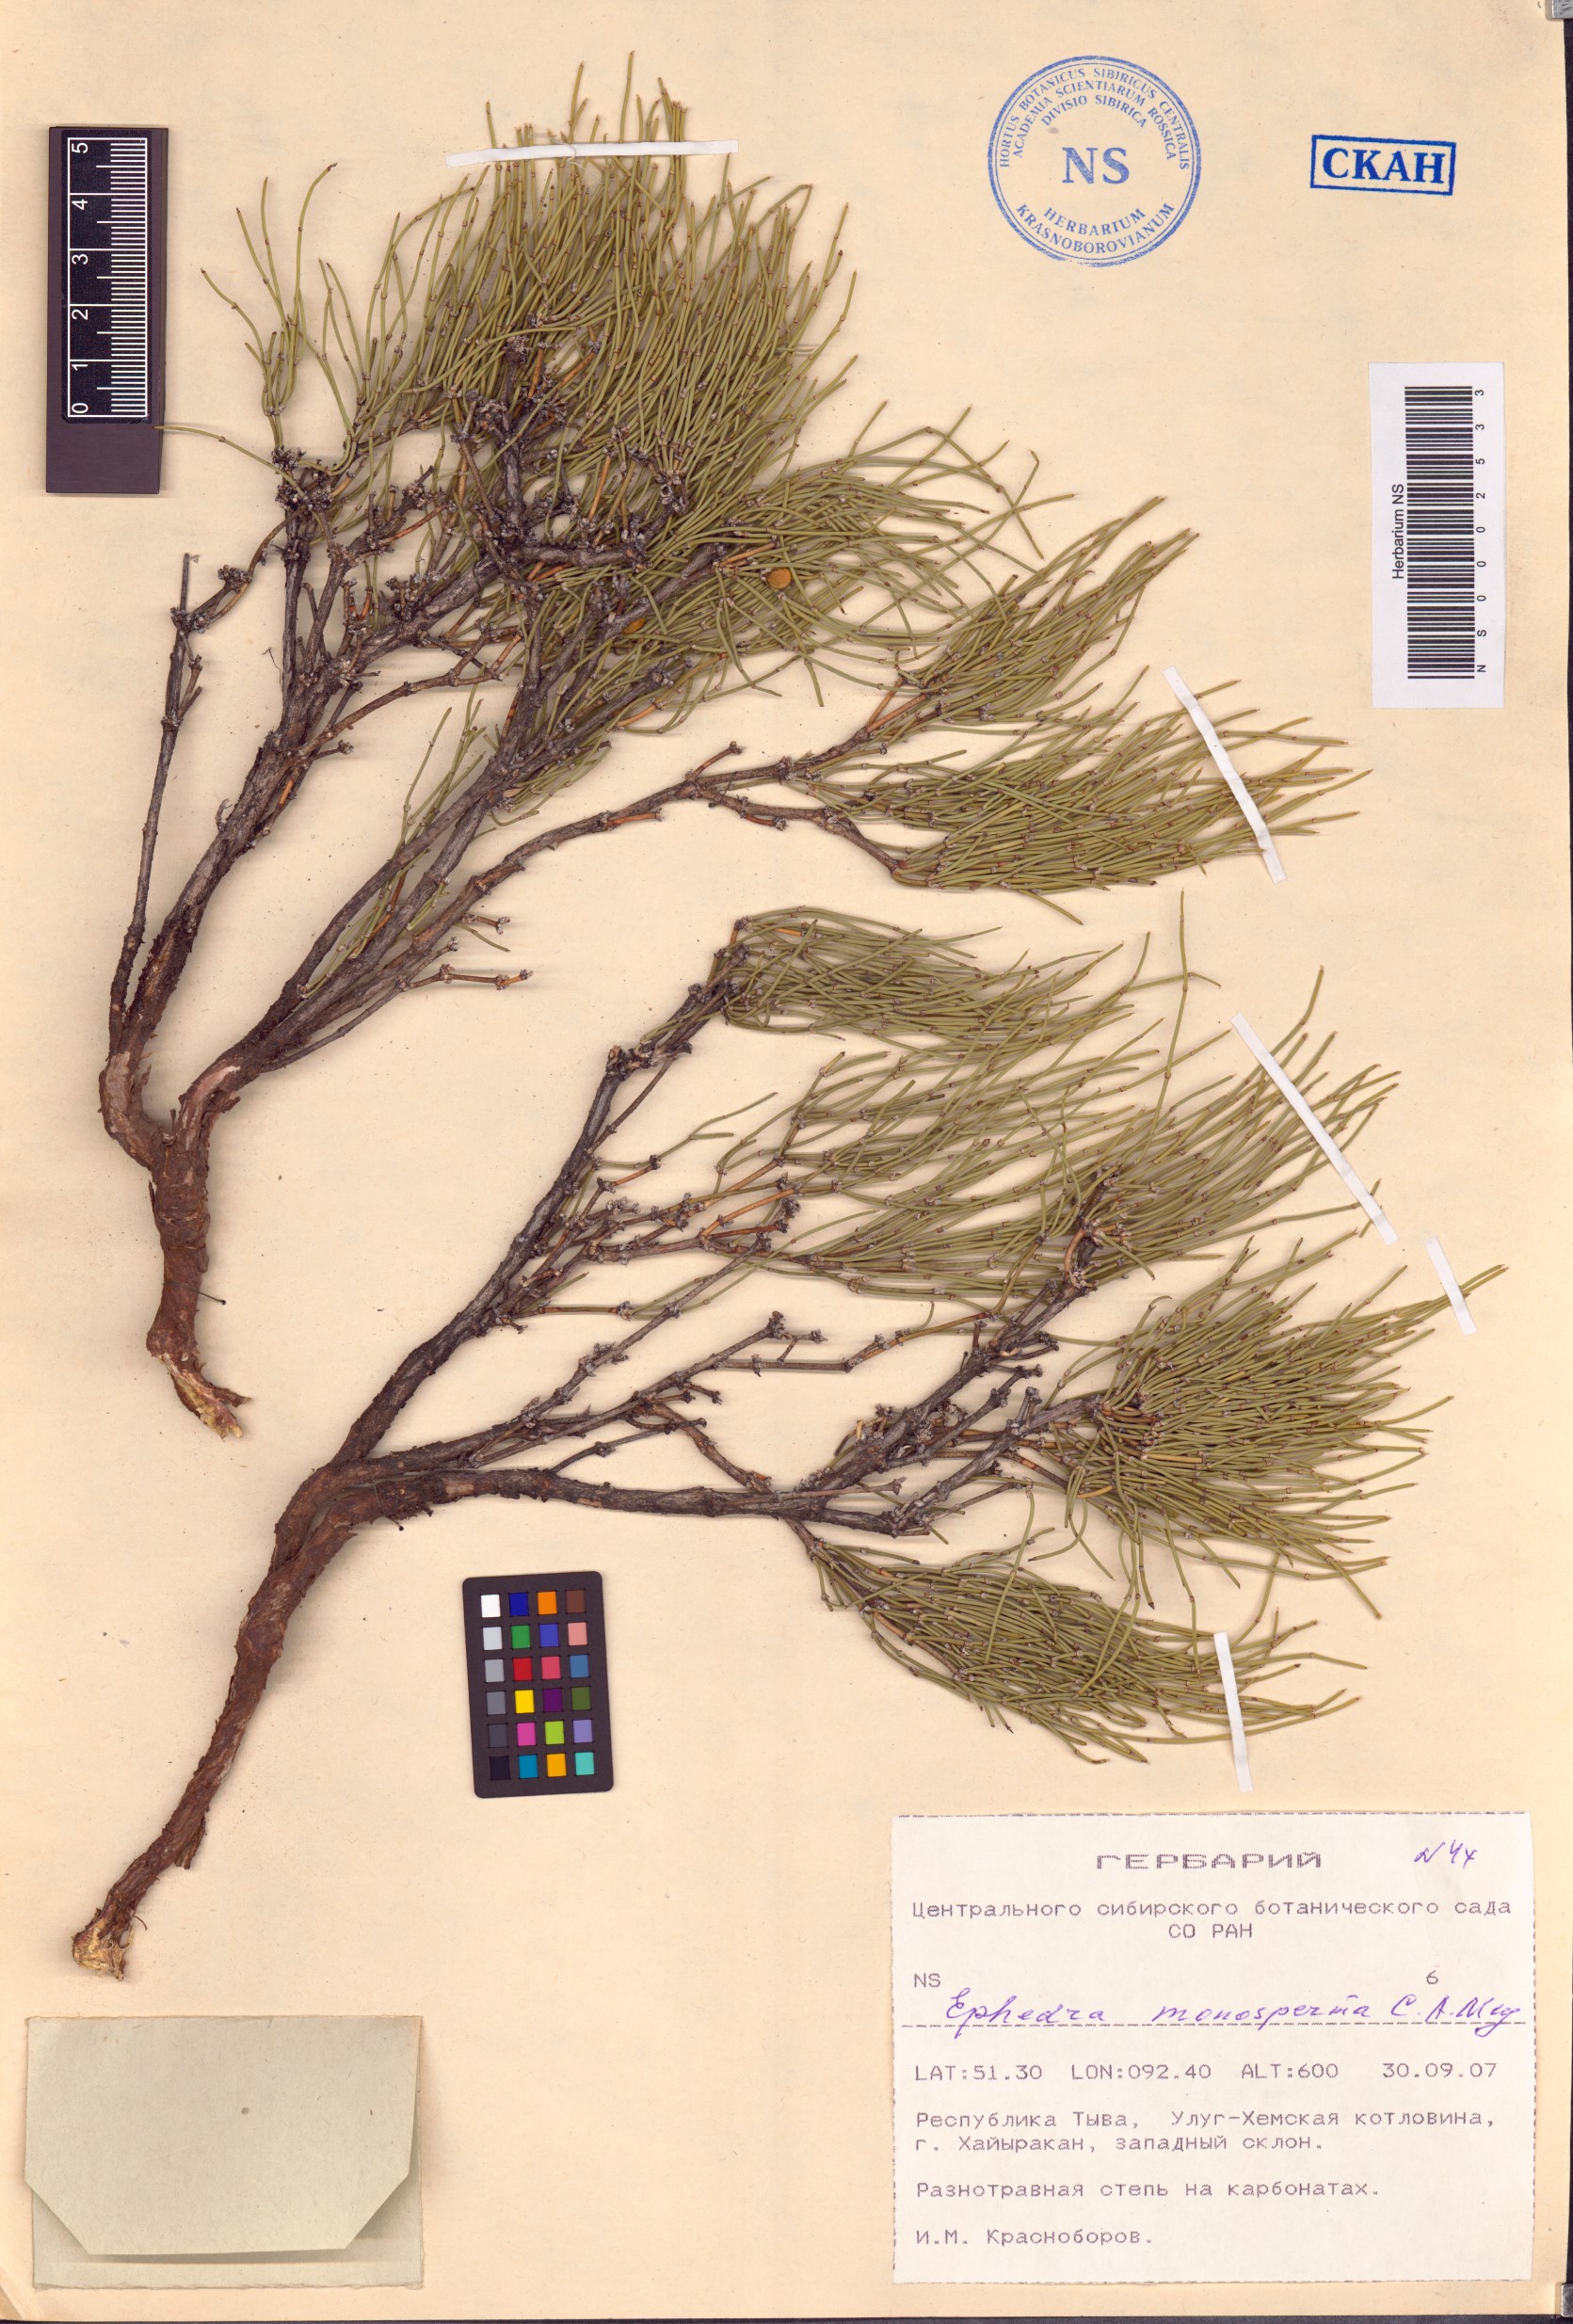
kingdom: Plantae
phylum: Tracheophyta
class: Gnetopsida
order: Ephedrales
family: Ephedraceae
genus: Ephedra
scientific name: Ephedra monosperma
